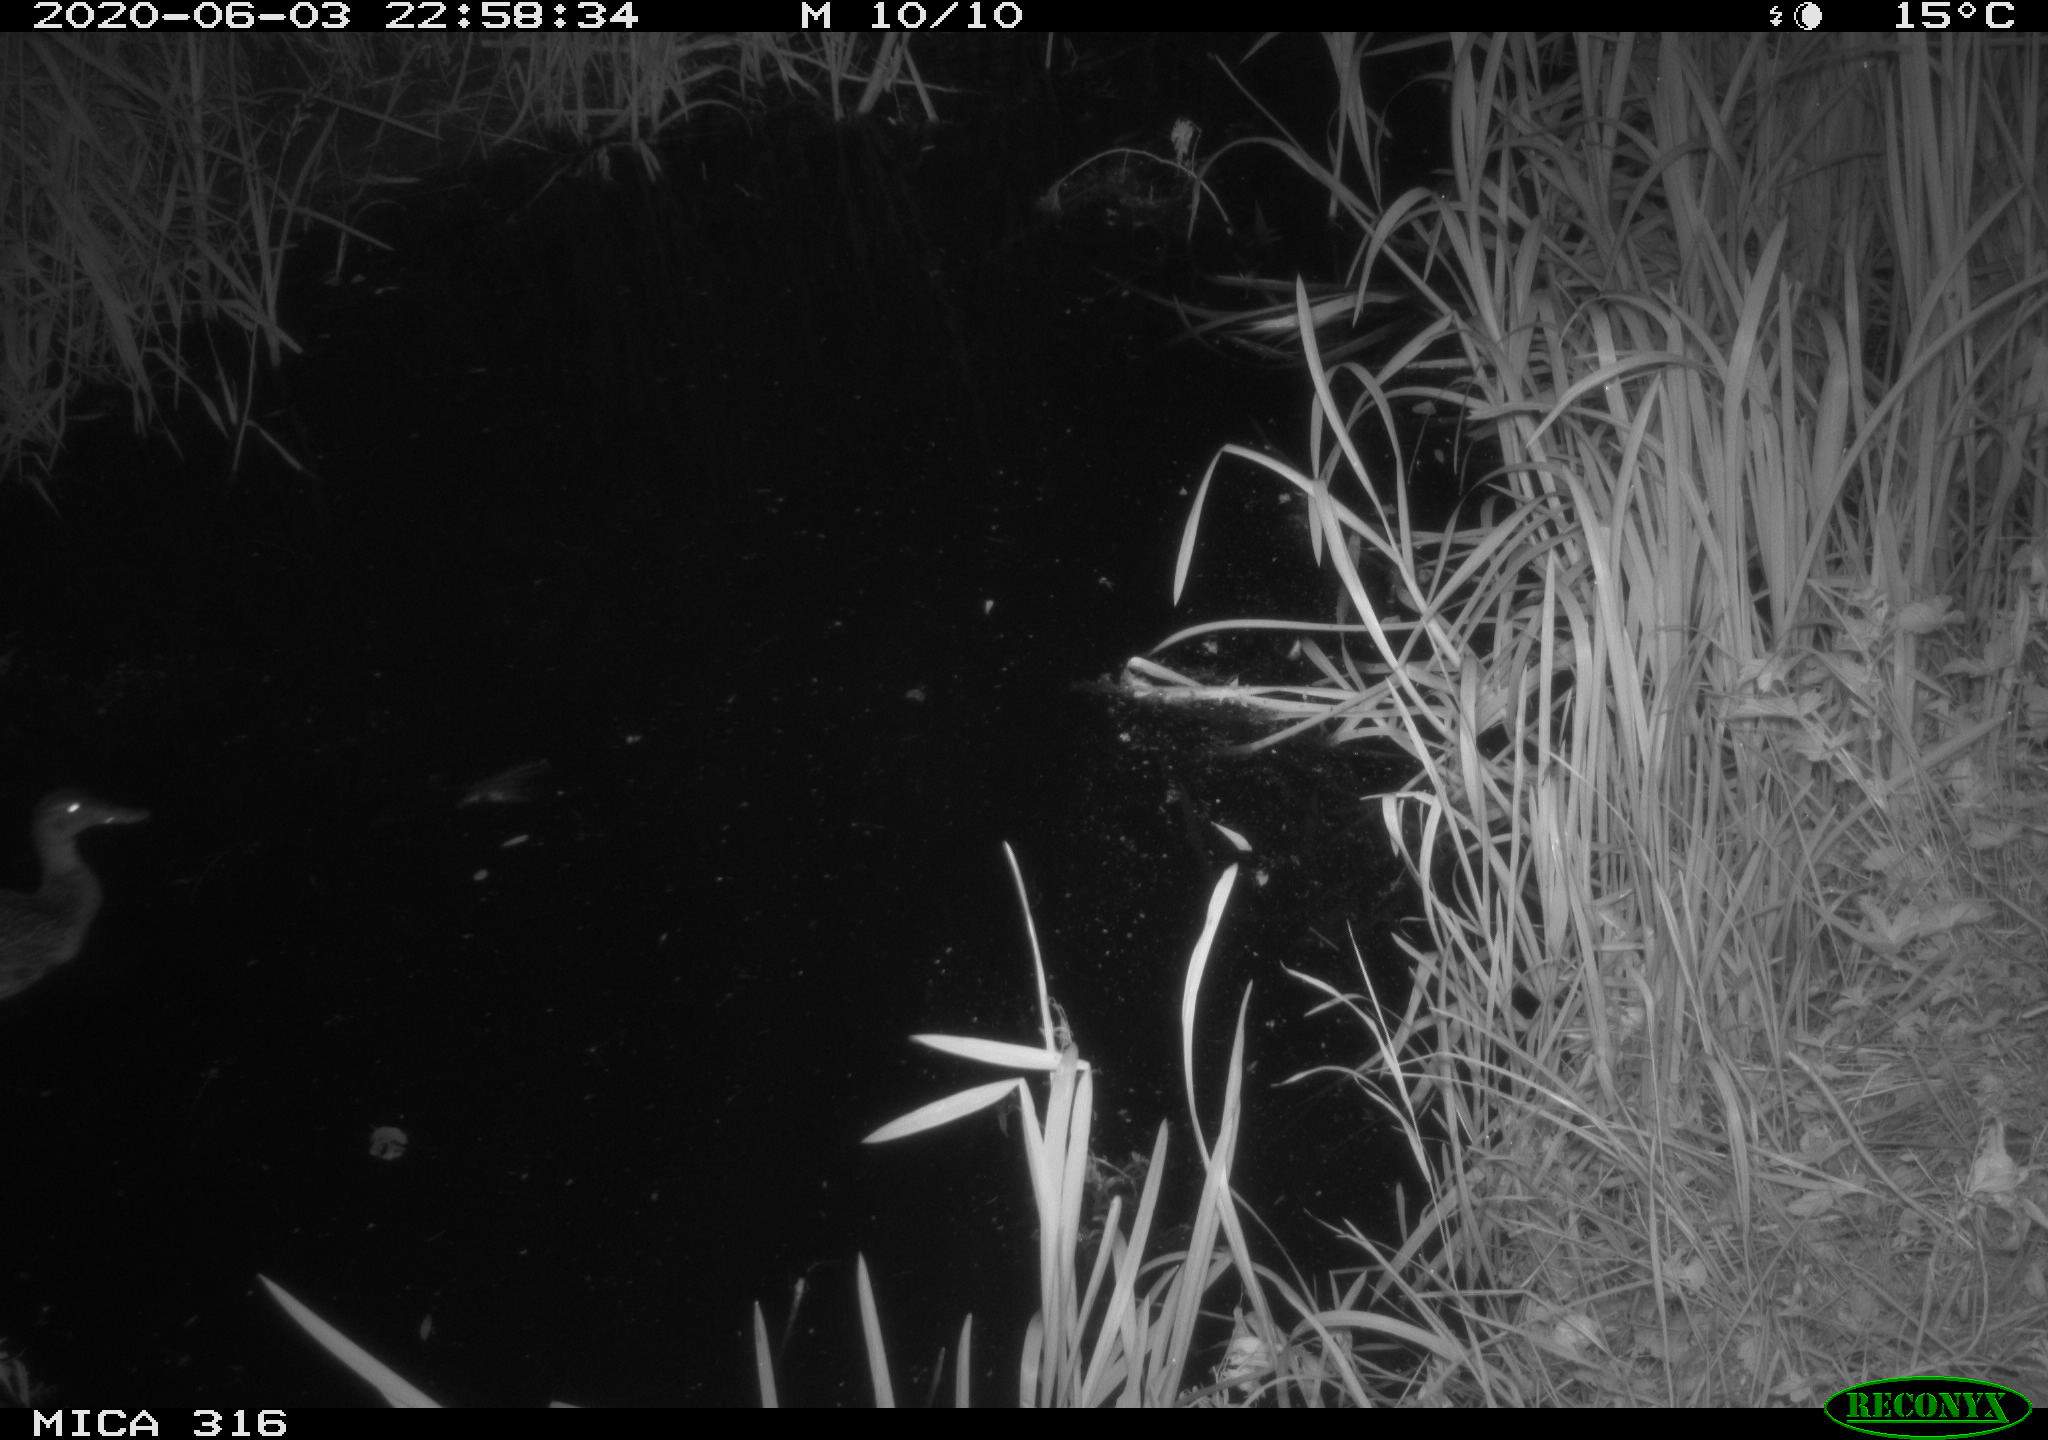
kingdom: Animalia
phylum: Chordata
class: Aves
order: Anseriformes
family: Anatidae
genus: Anas
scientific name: Anas platyrhynchos
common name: Mallard
